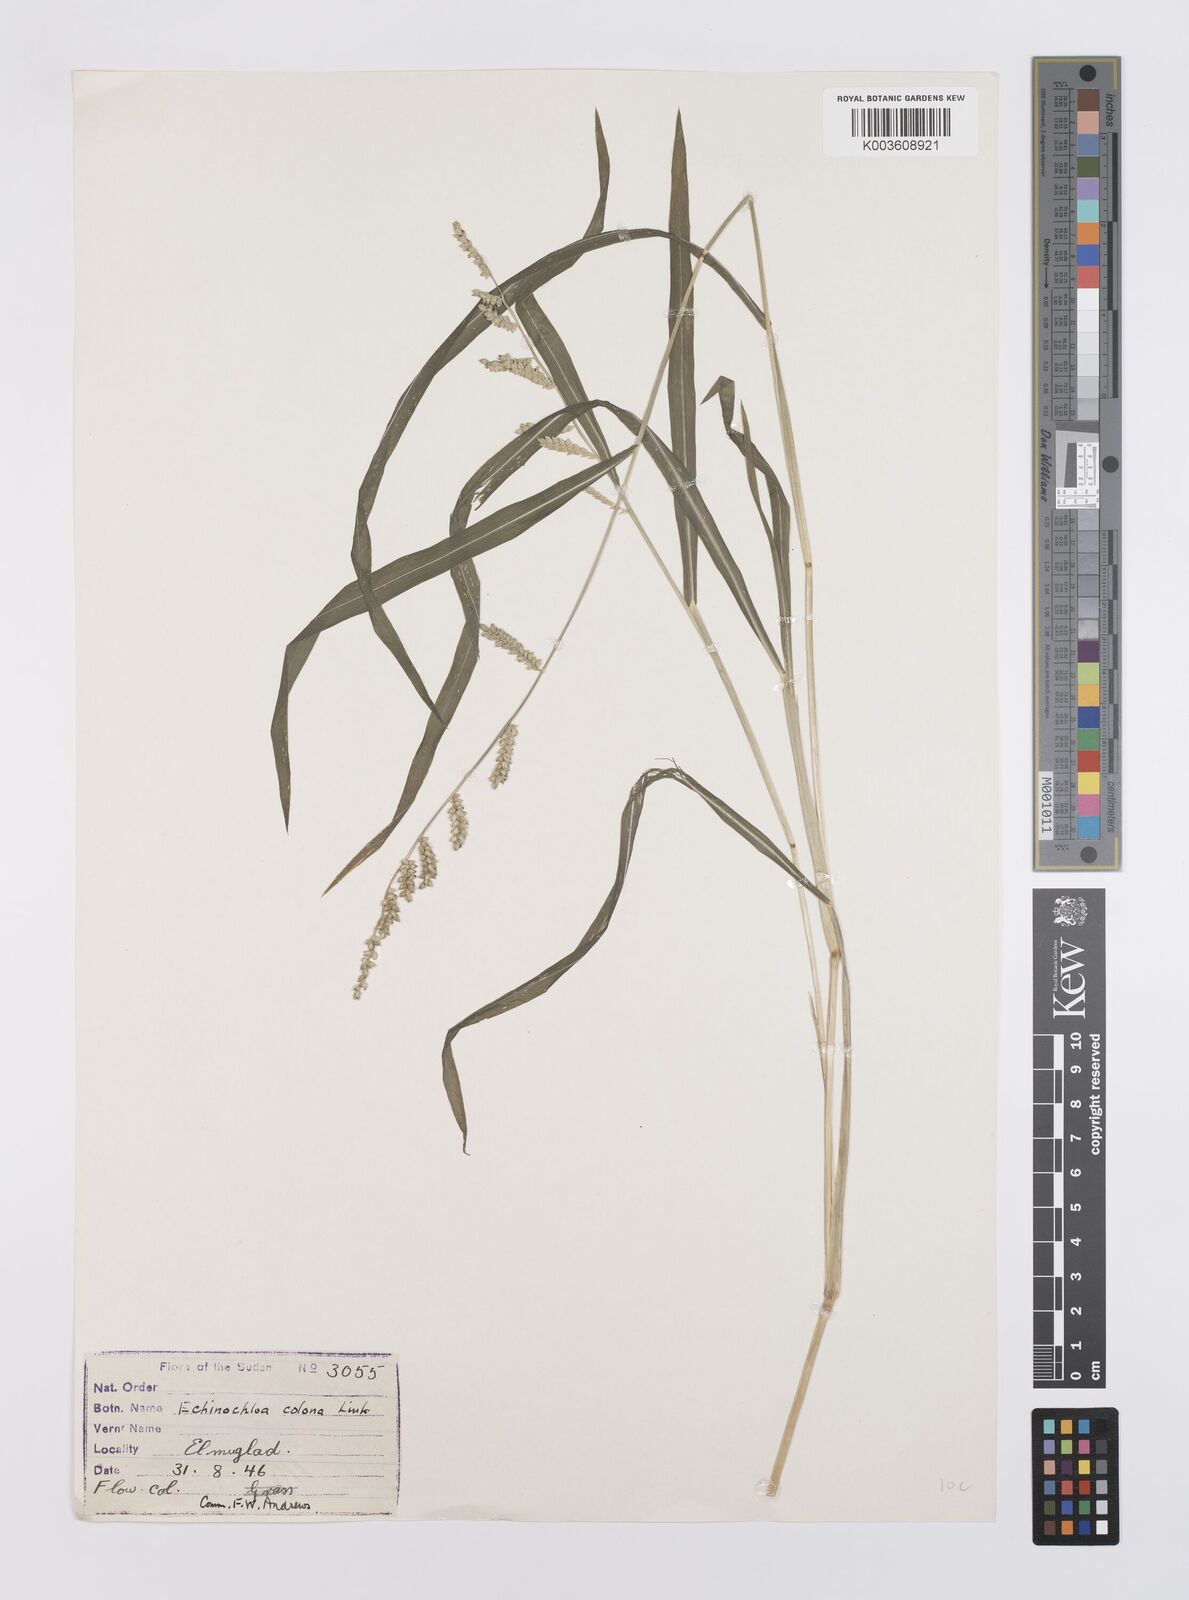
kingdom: Plantae
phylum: Tracheophyta
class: Liliopsida
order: Poales
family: Poaceae
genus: Echinochloa
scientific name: Echinochloa colonum
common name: Jungle rice
